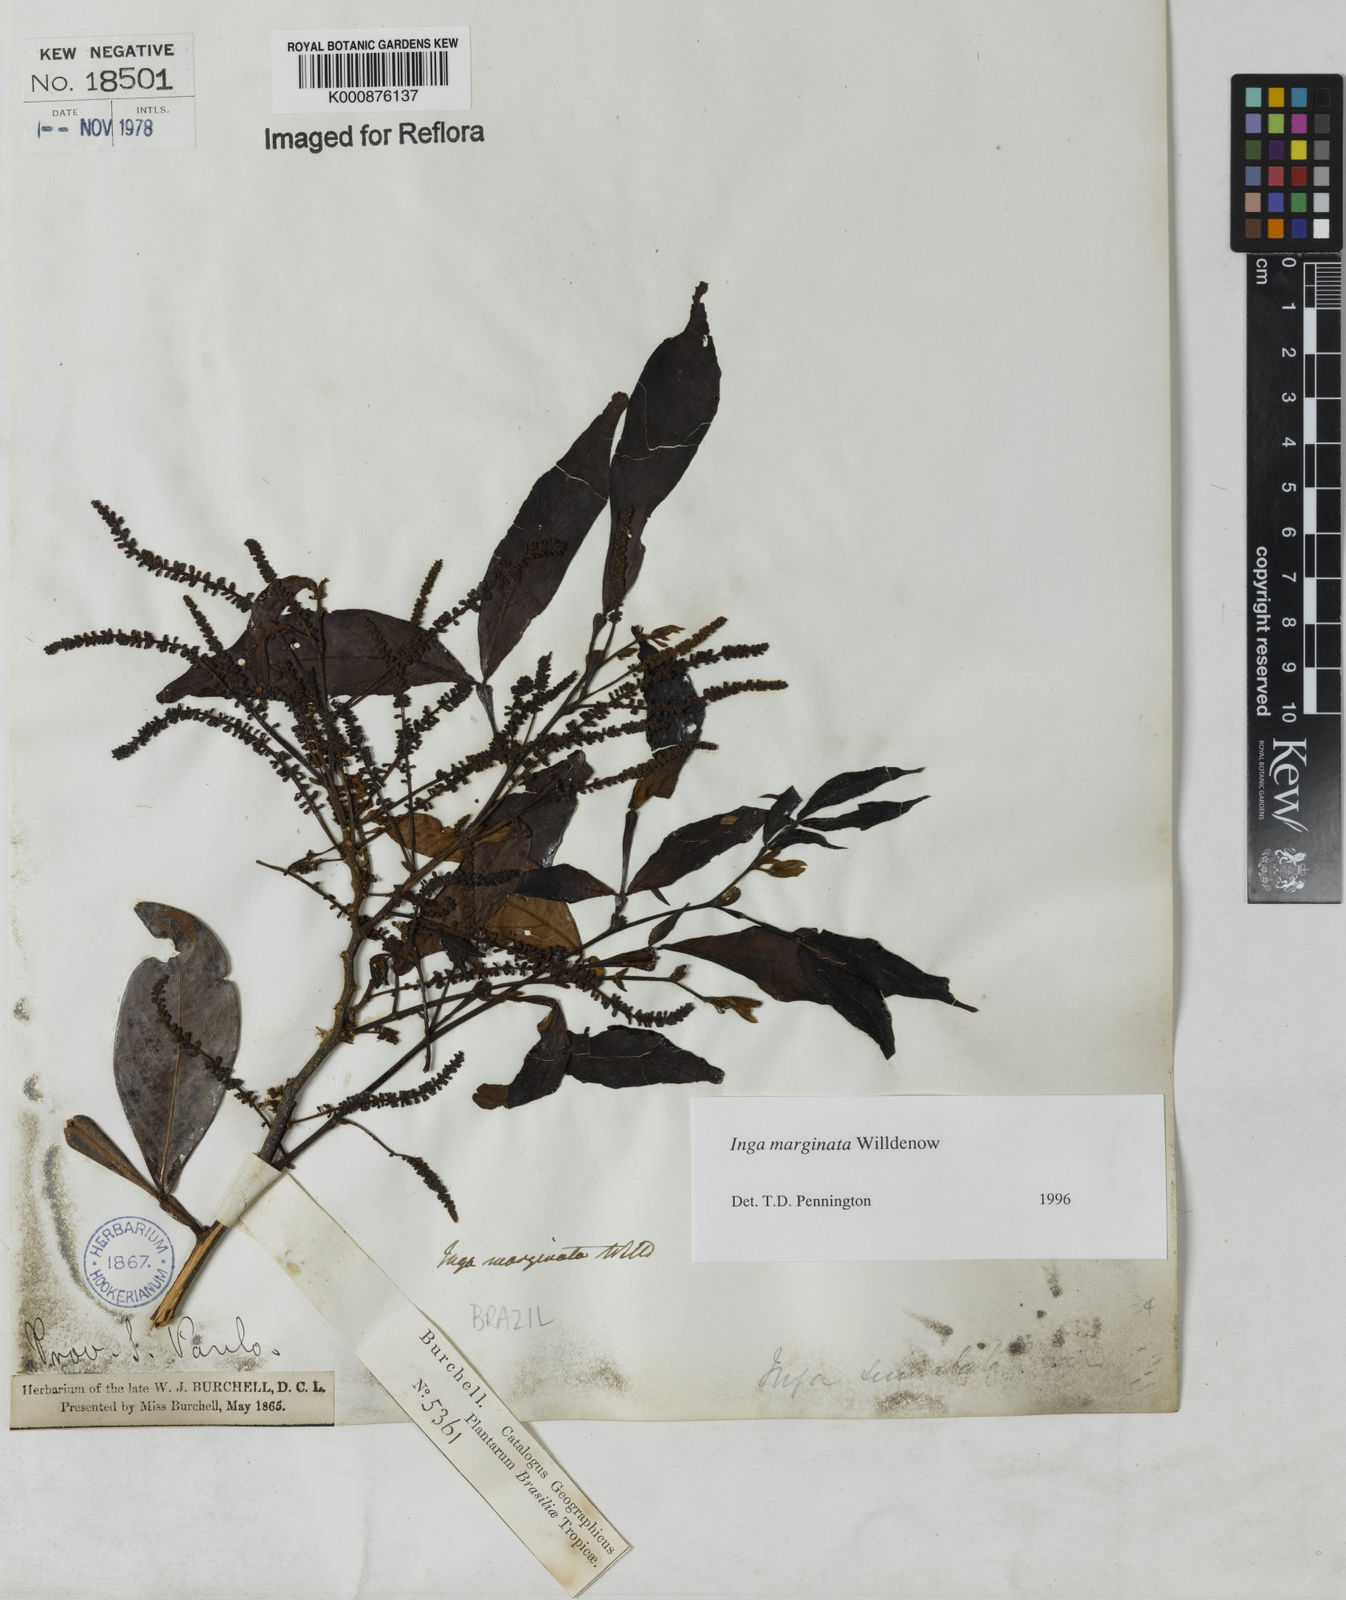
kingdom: Plantae
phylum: Tracheophyta
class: Magnoliopsida
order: Fabales
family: Fabaceae
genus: Inga
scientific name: Inga marginata
